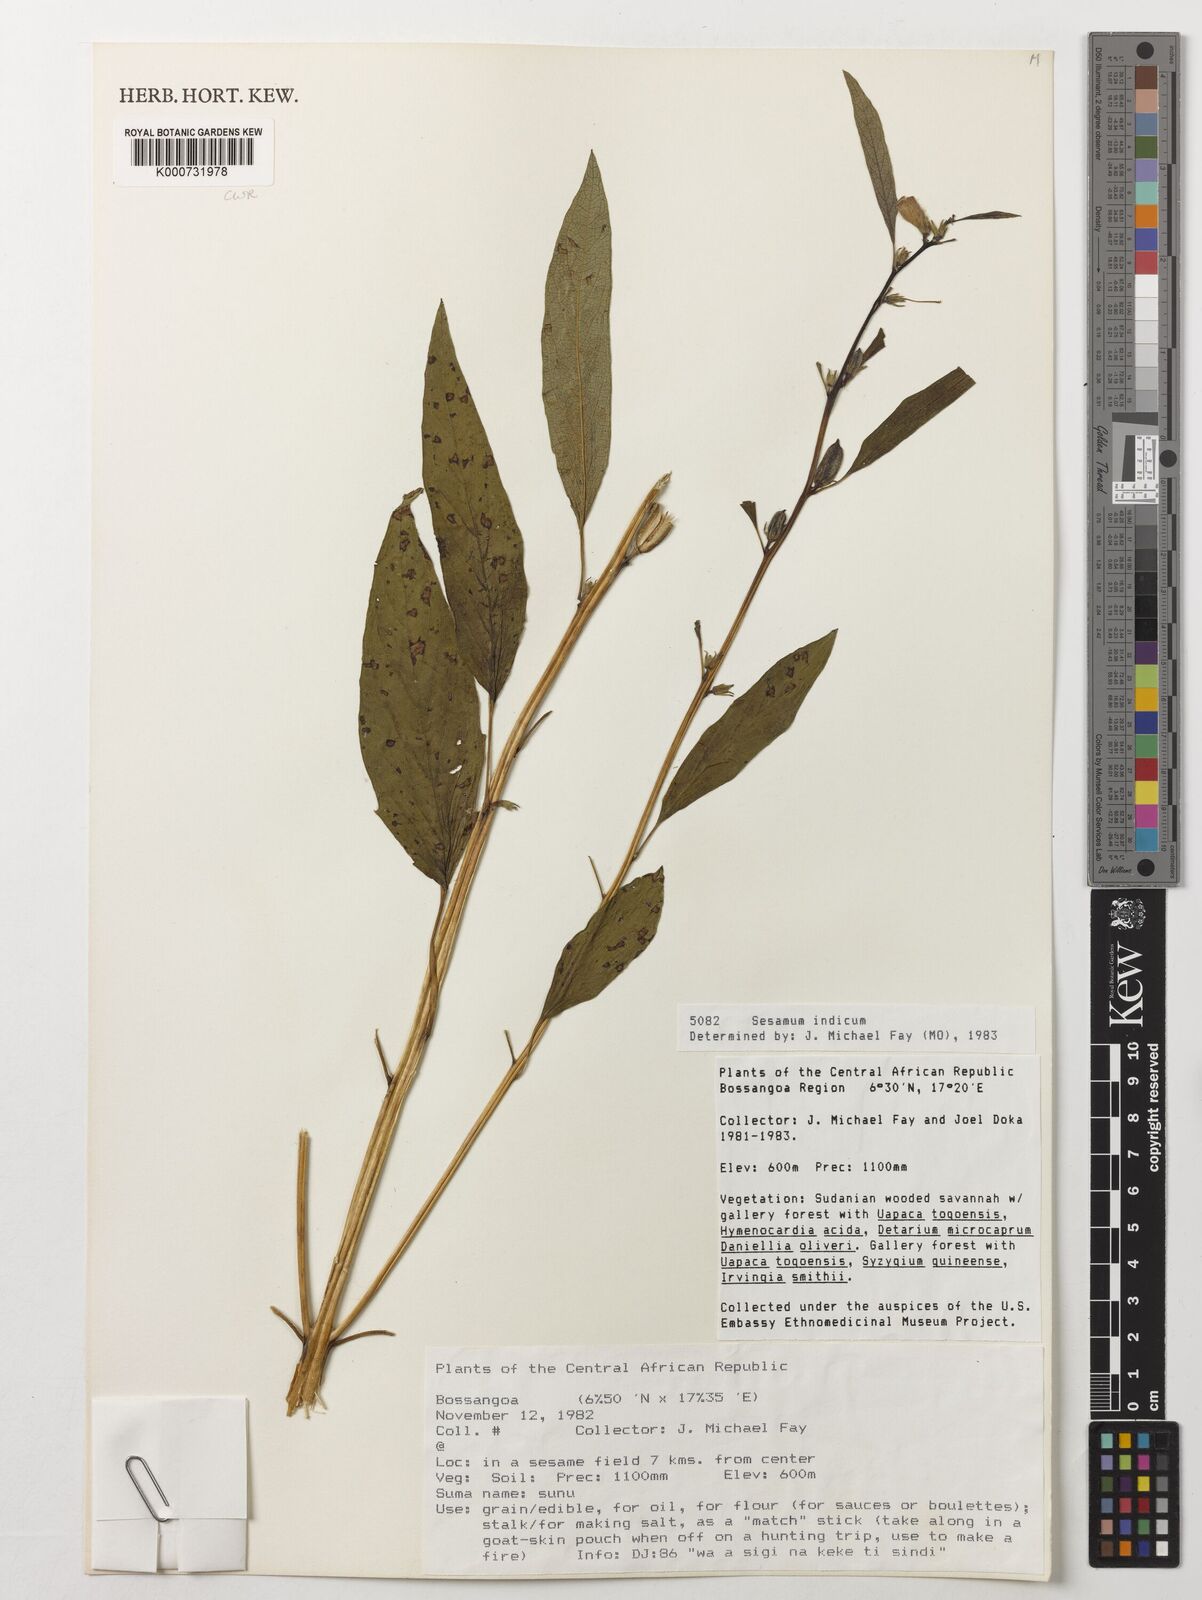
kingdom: Plantae
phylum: Tracheophyta
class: Magnoliopsida
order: Lamiales
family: Pedaliaceae
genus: Sesamum
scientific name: Sesamum indicum
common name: Sesame
